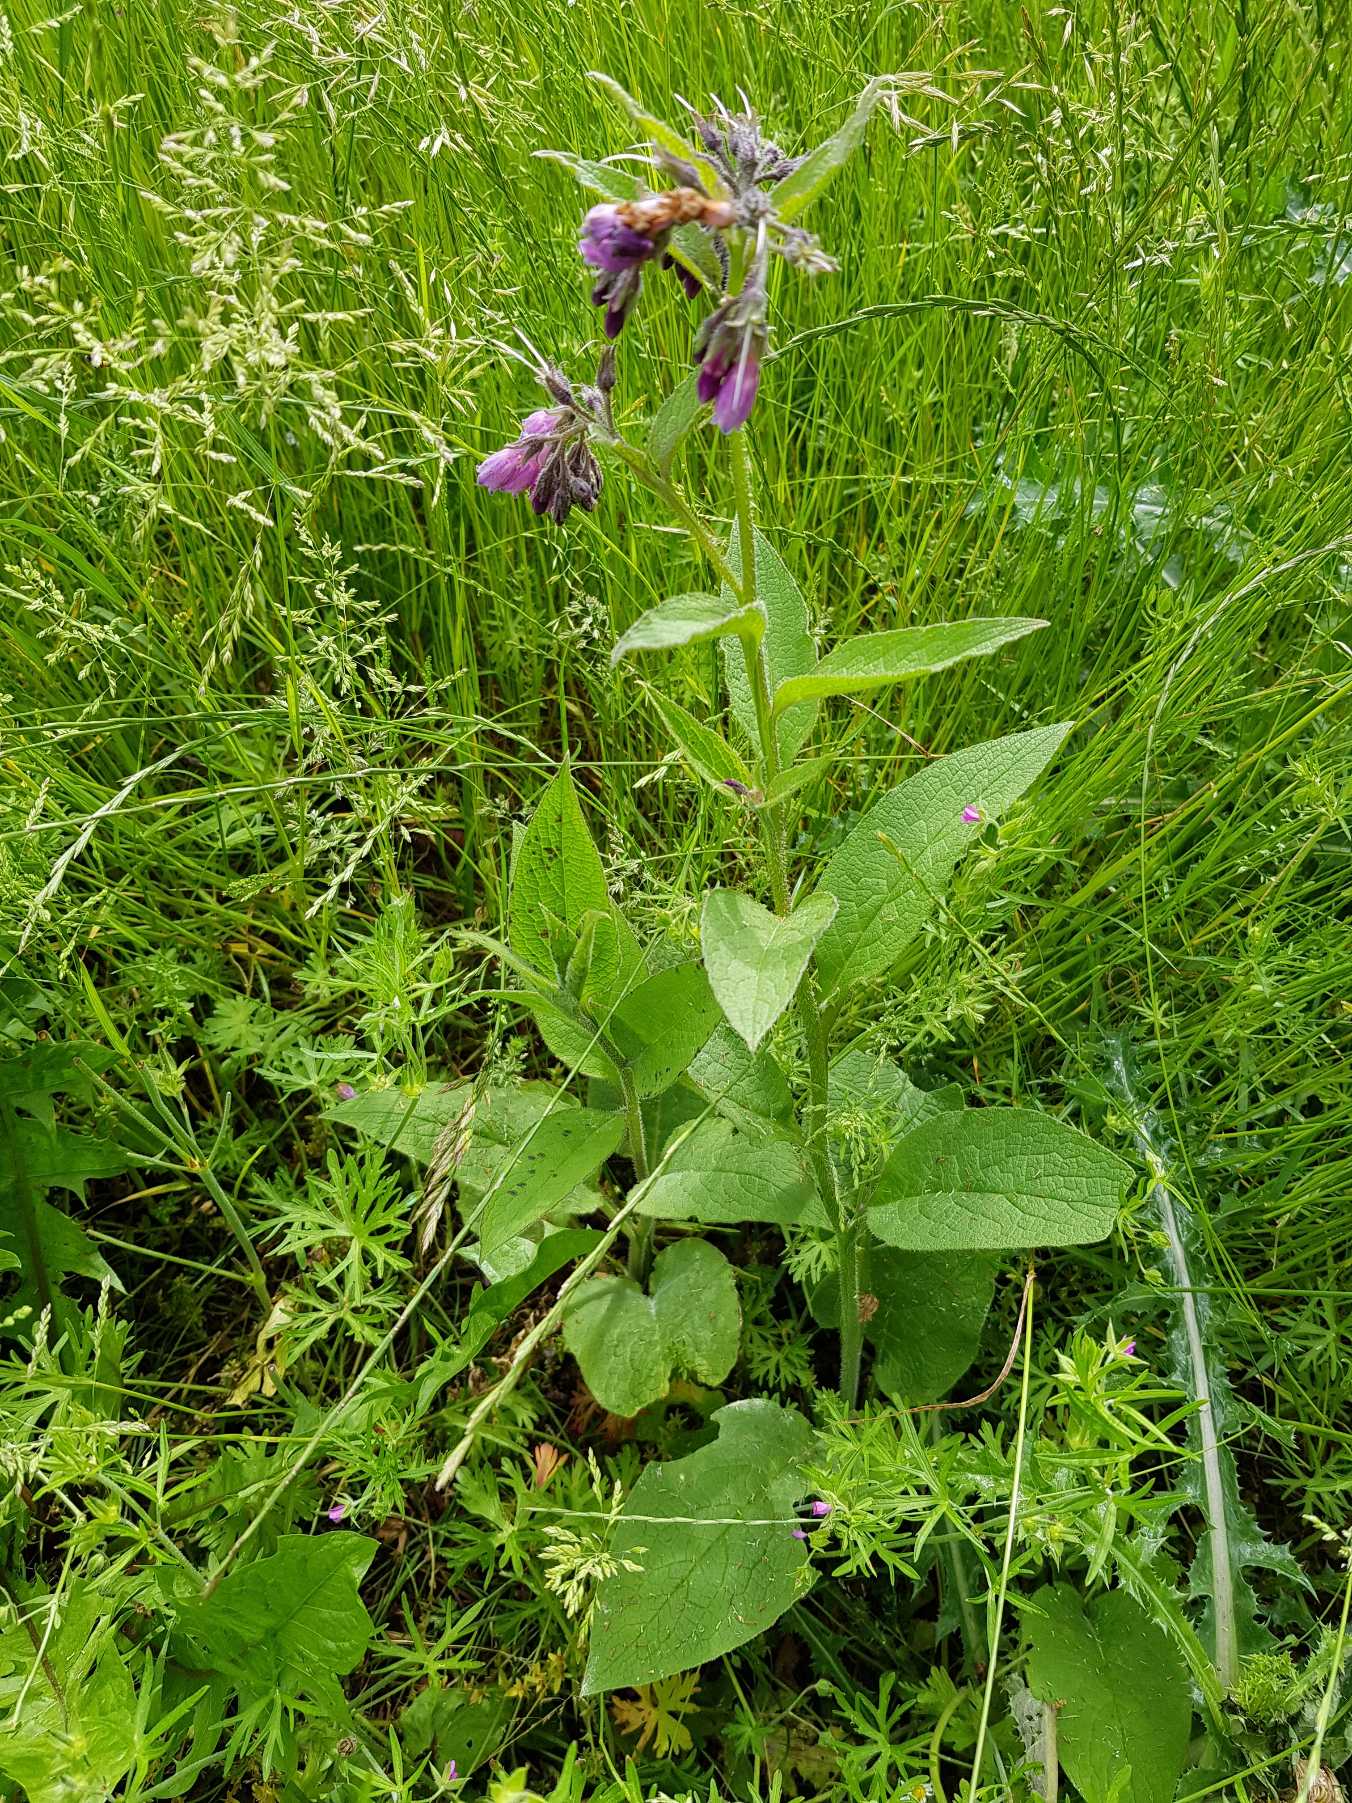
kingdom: Plantae
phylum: Tracheophyta
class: Magnoliopsida
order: Boraginales
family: Boraginaceae
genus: Symphytum
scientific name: Symphytum uplandicum
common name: Foder-kulsukker
